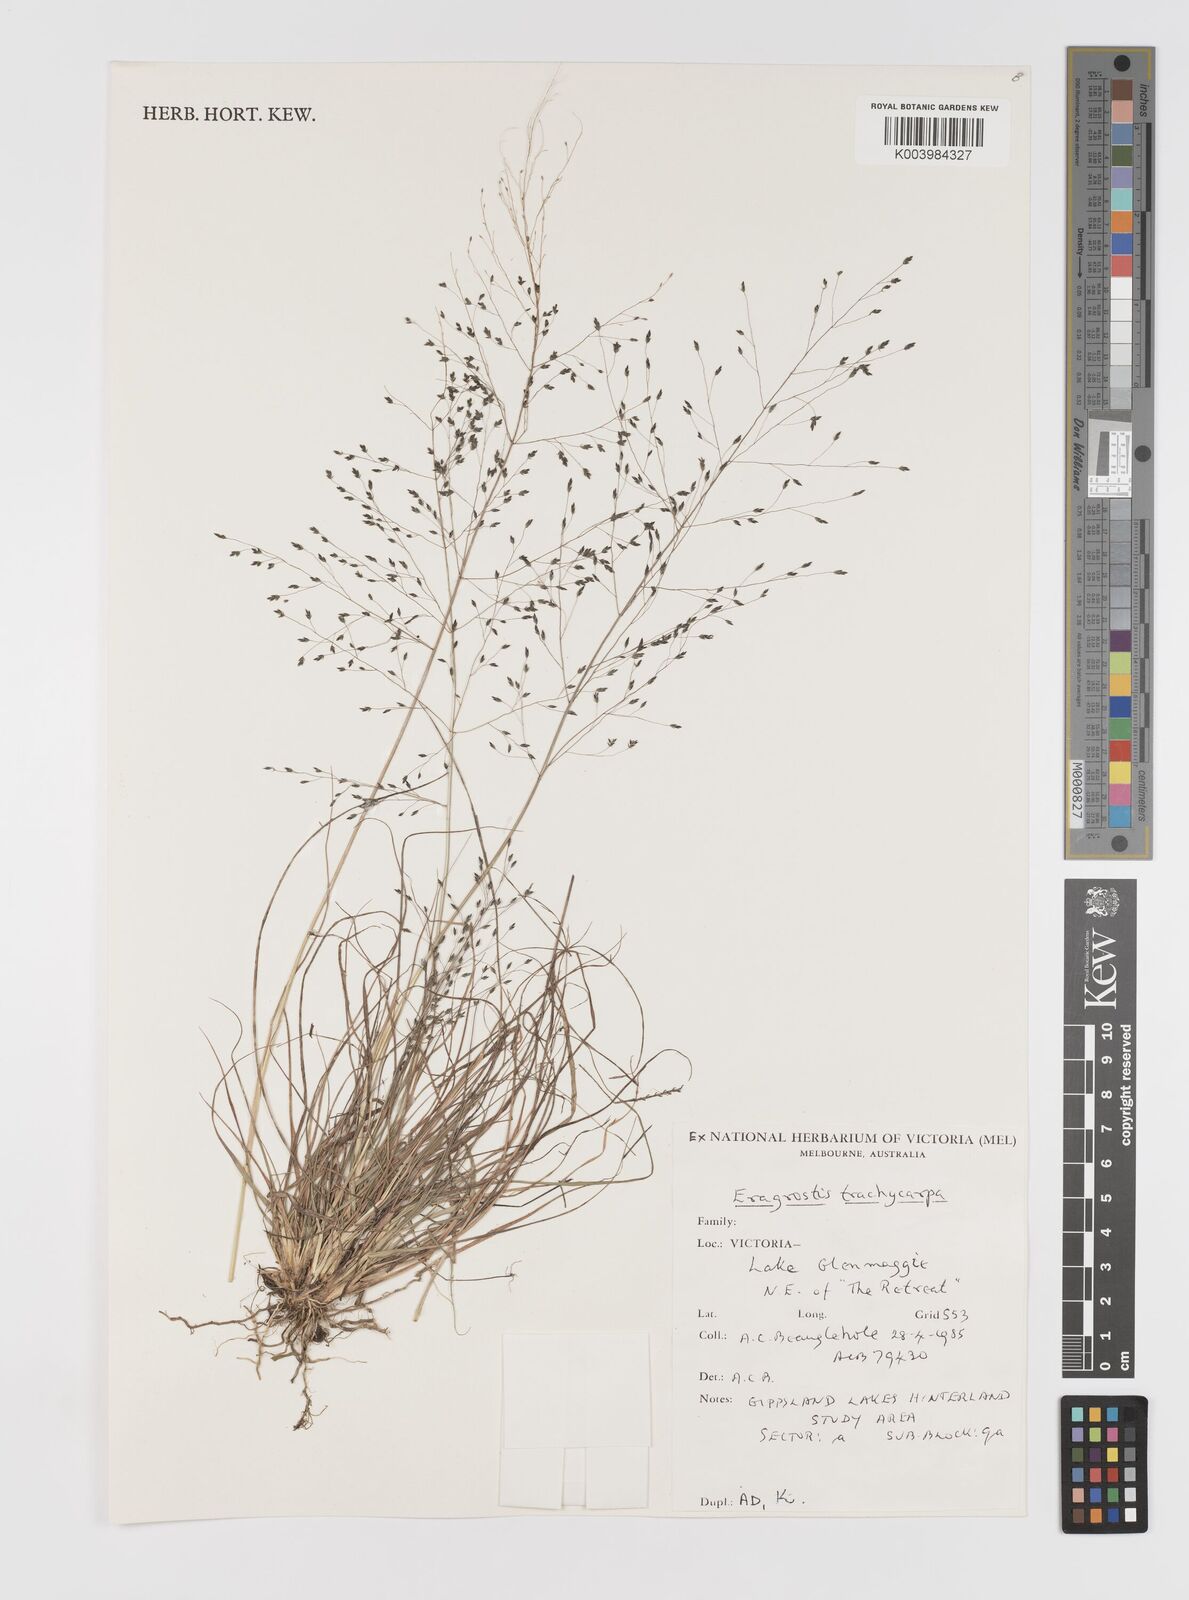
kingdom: Plantae
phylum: Tracheophyta
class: Liliopsida
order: Poales
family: Poaceae
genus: Eragrostis
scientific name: Eragrostis trachycarpa
